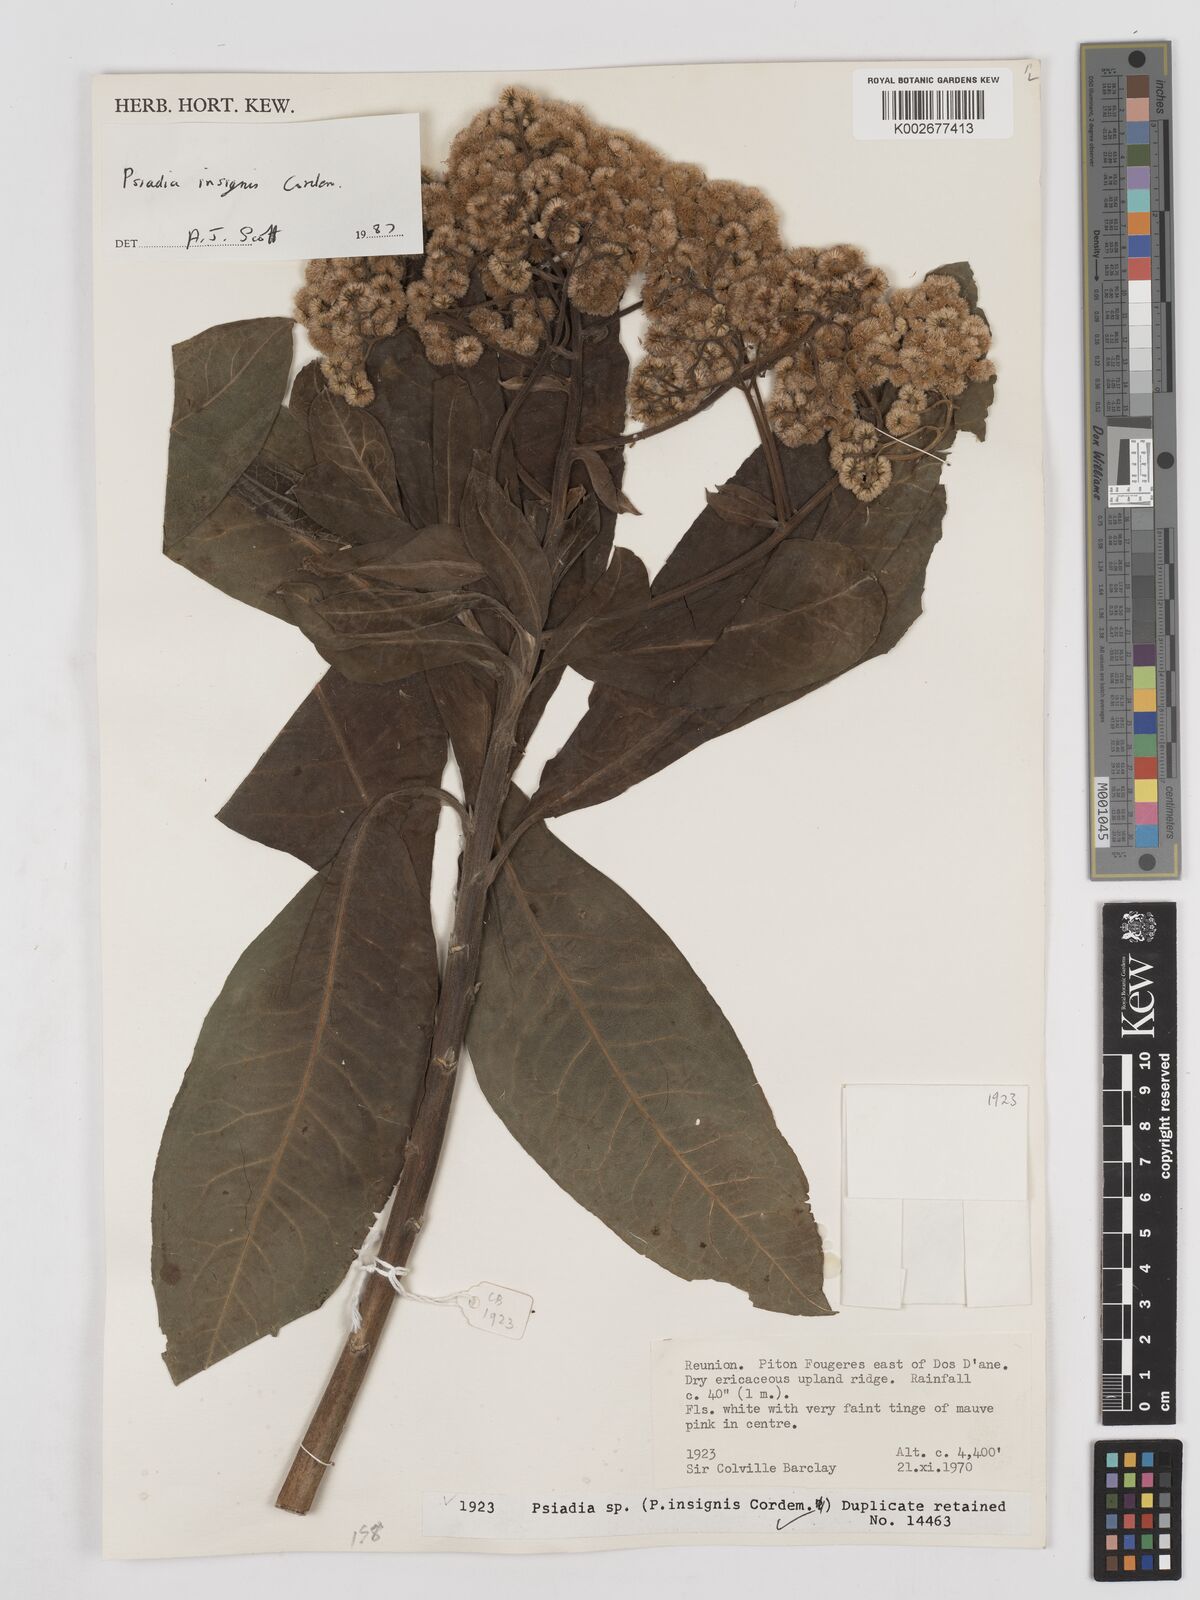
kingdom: Plantae
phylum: Tracheophyta
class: Magnoliopsida
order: Asterales
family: Asteraceae
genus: Psiadia
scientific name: Psiadia insignis
